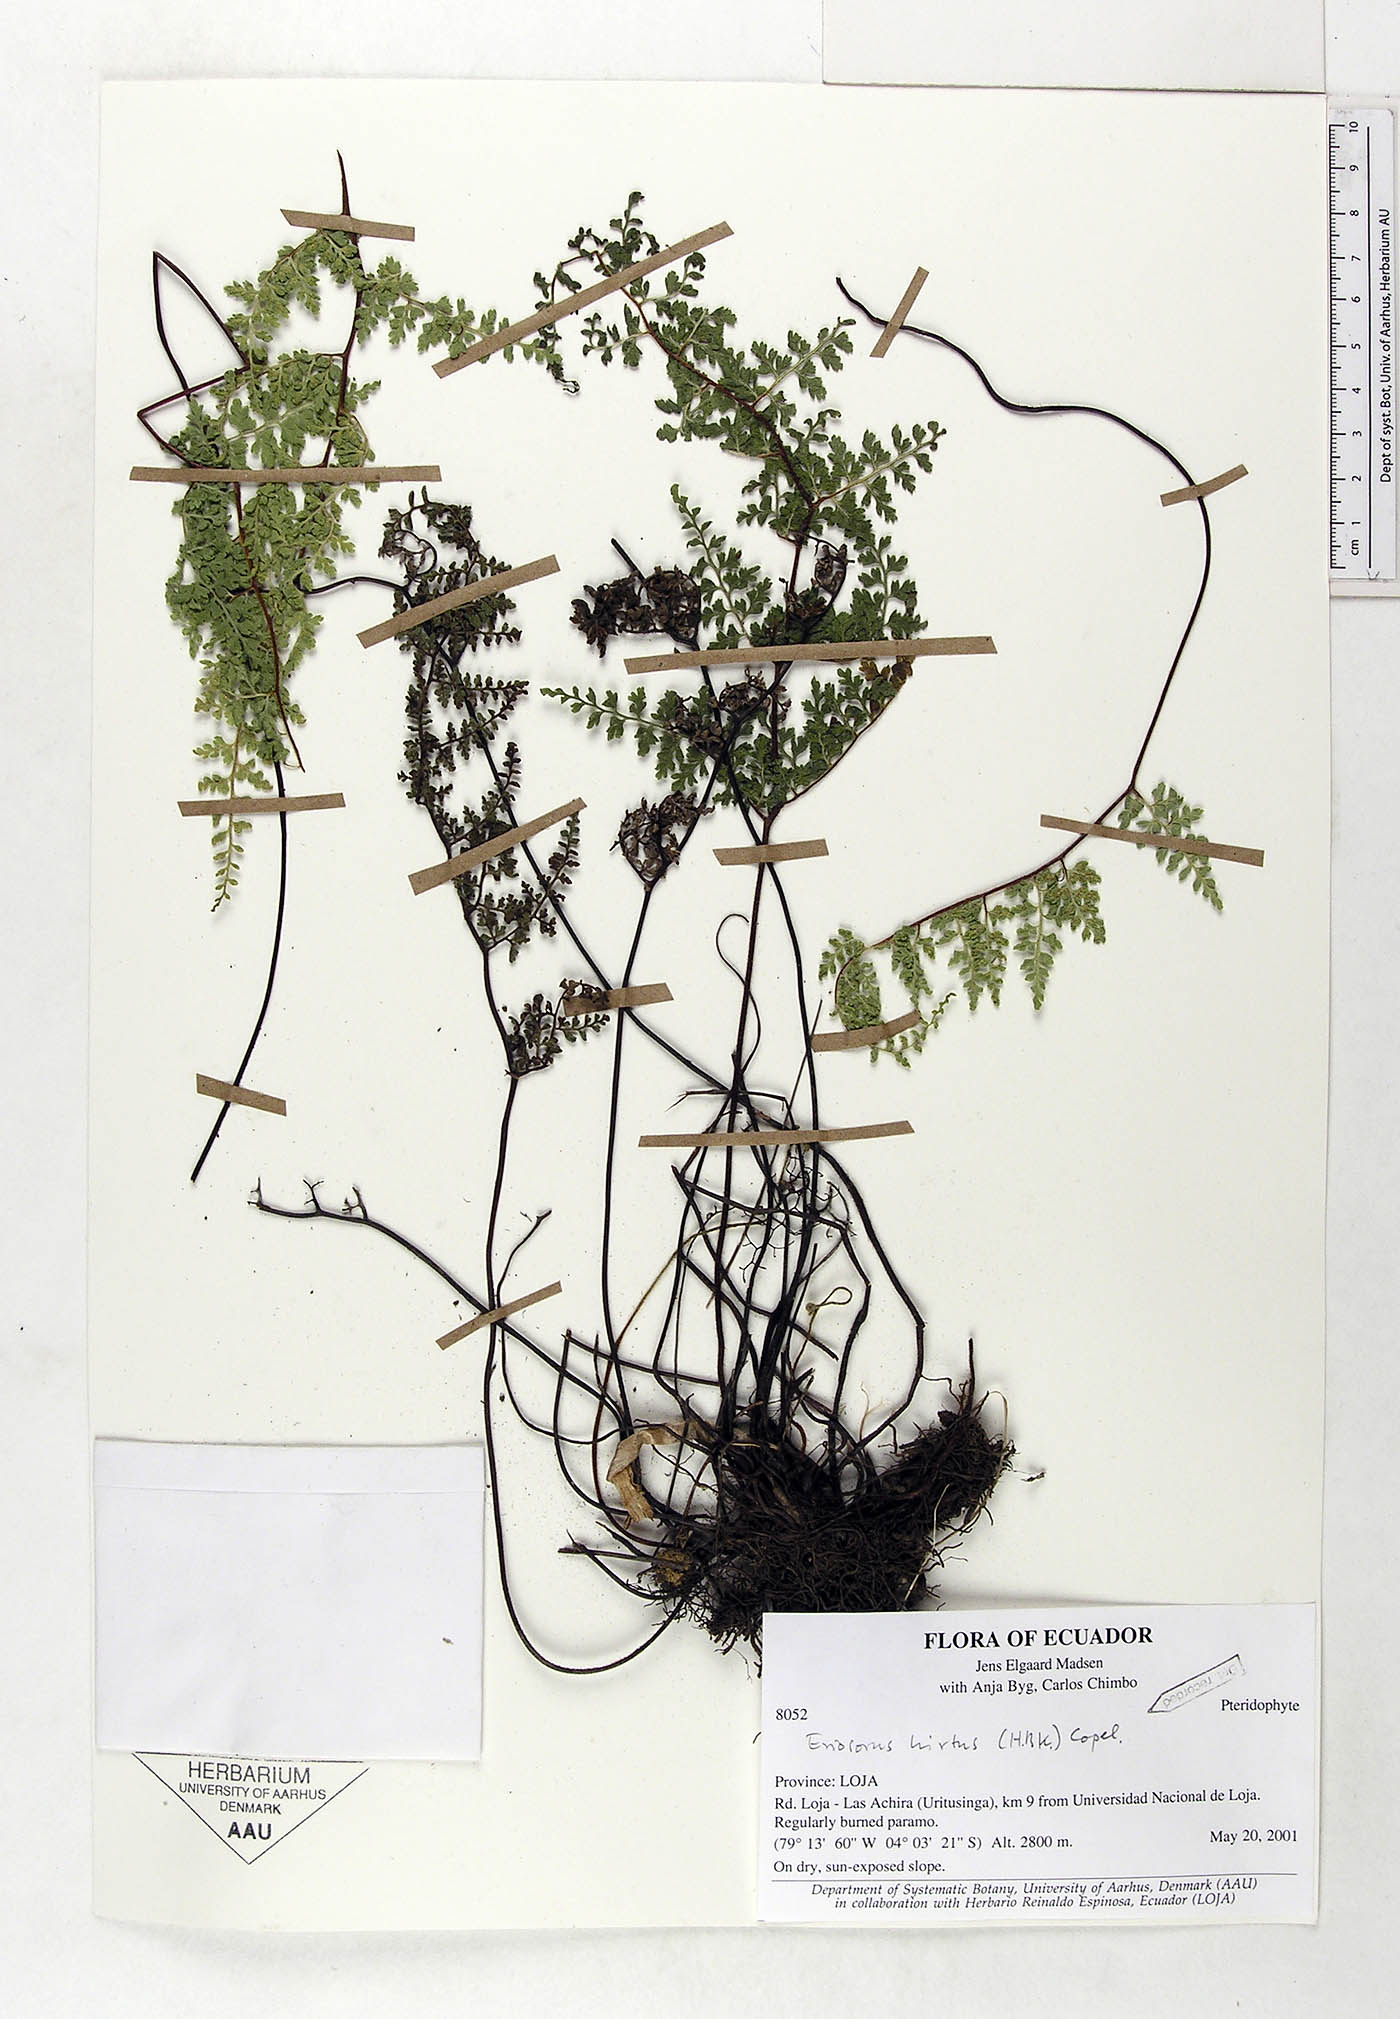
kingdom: Plantae
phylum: Tracheophyta
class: Polypodiopsida
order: Polypodiales
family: Pteridaceae
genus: Jamesonia
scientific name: Jamesonia hirta
